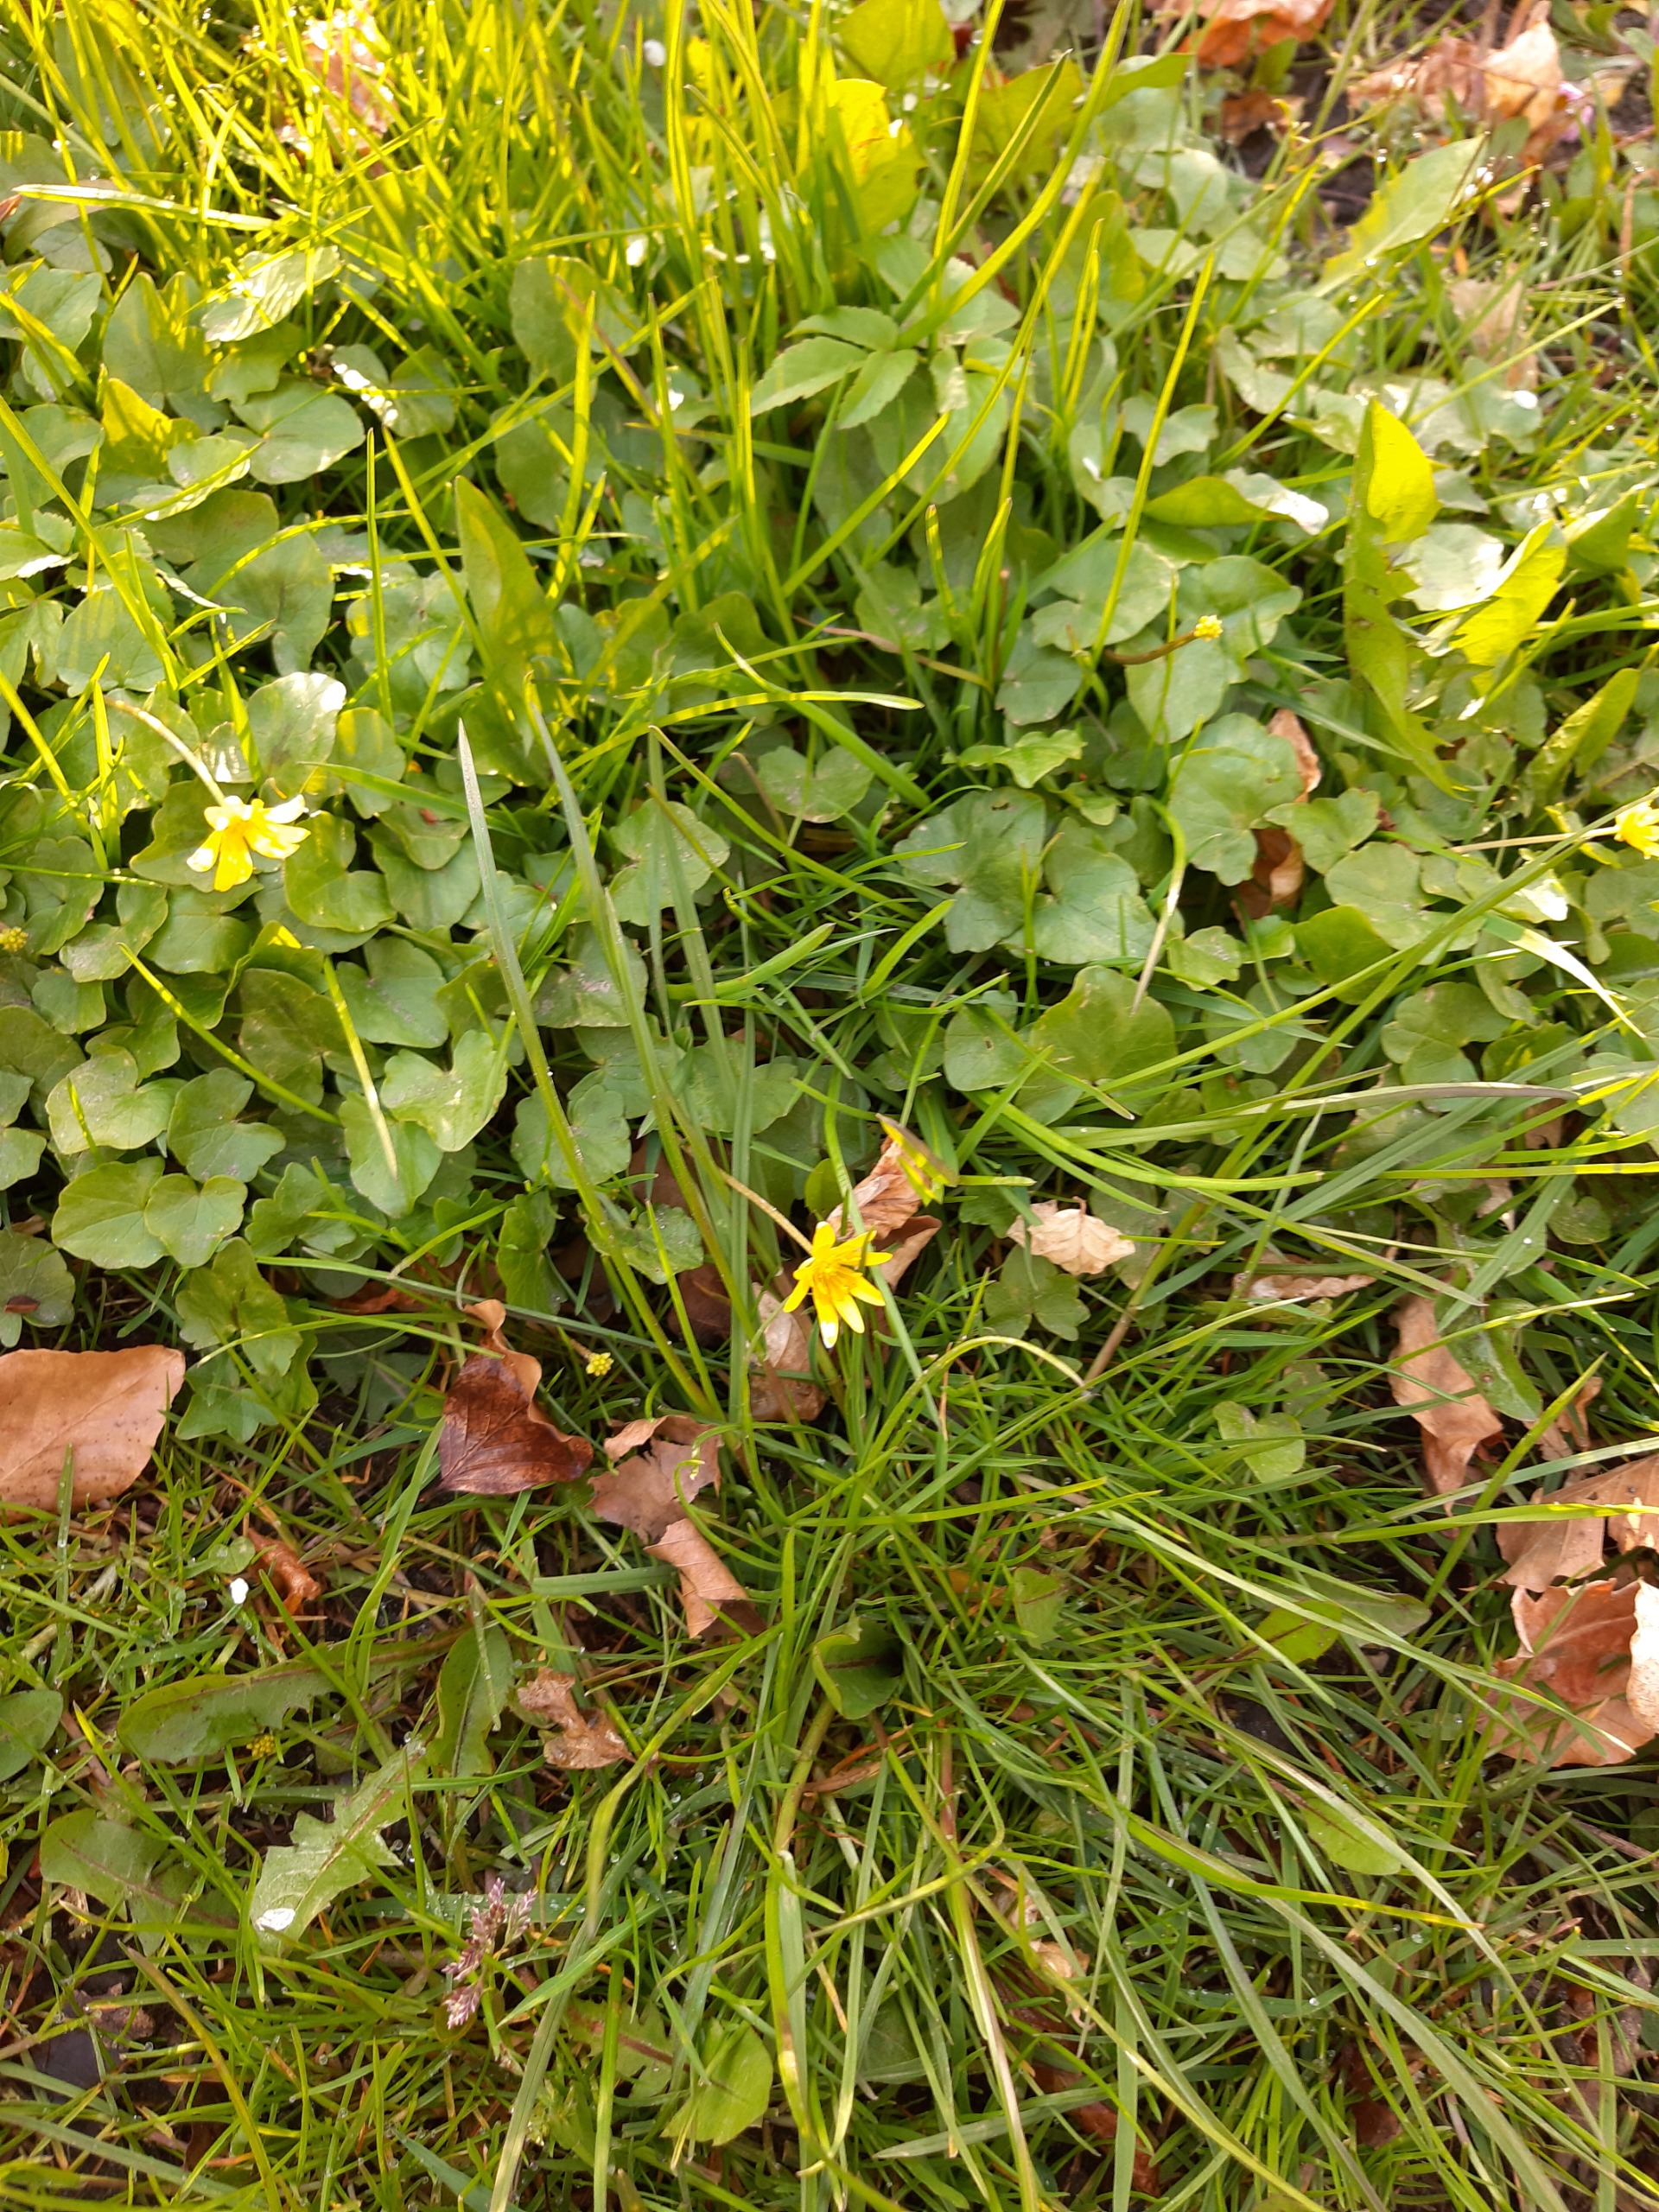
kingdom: Plantae
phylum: Tracheophyta
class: Magnoliopsida
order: Ranunculales
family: Ranunculaceae
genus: Ficaria
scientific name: Ficaria verna
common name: Vorterod
